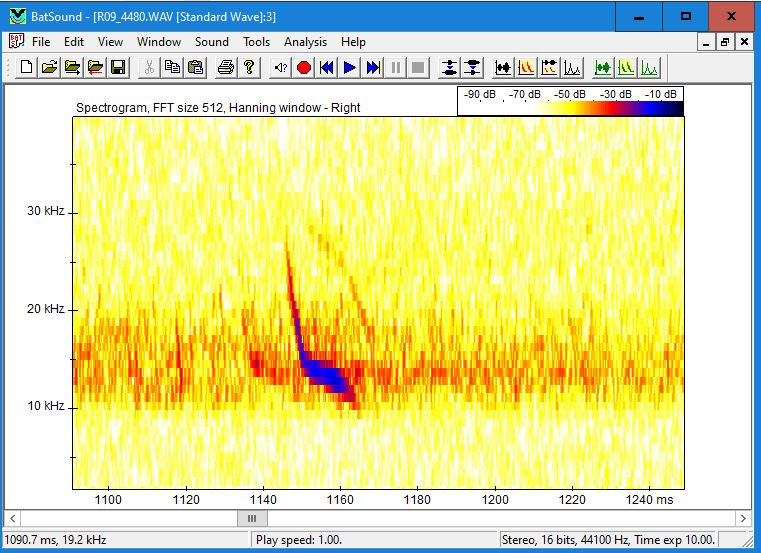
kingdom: Animalia
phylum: Chordata
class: Mammalia
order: Chiroptera
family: Vespertilionidae
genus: Vespertilio
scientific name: Vespertilio murinus
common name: Skimmelflagermus
